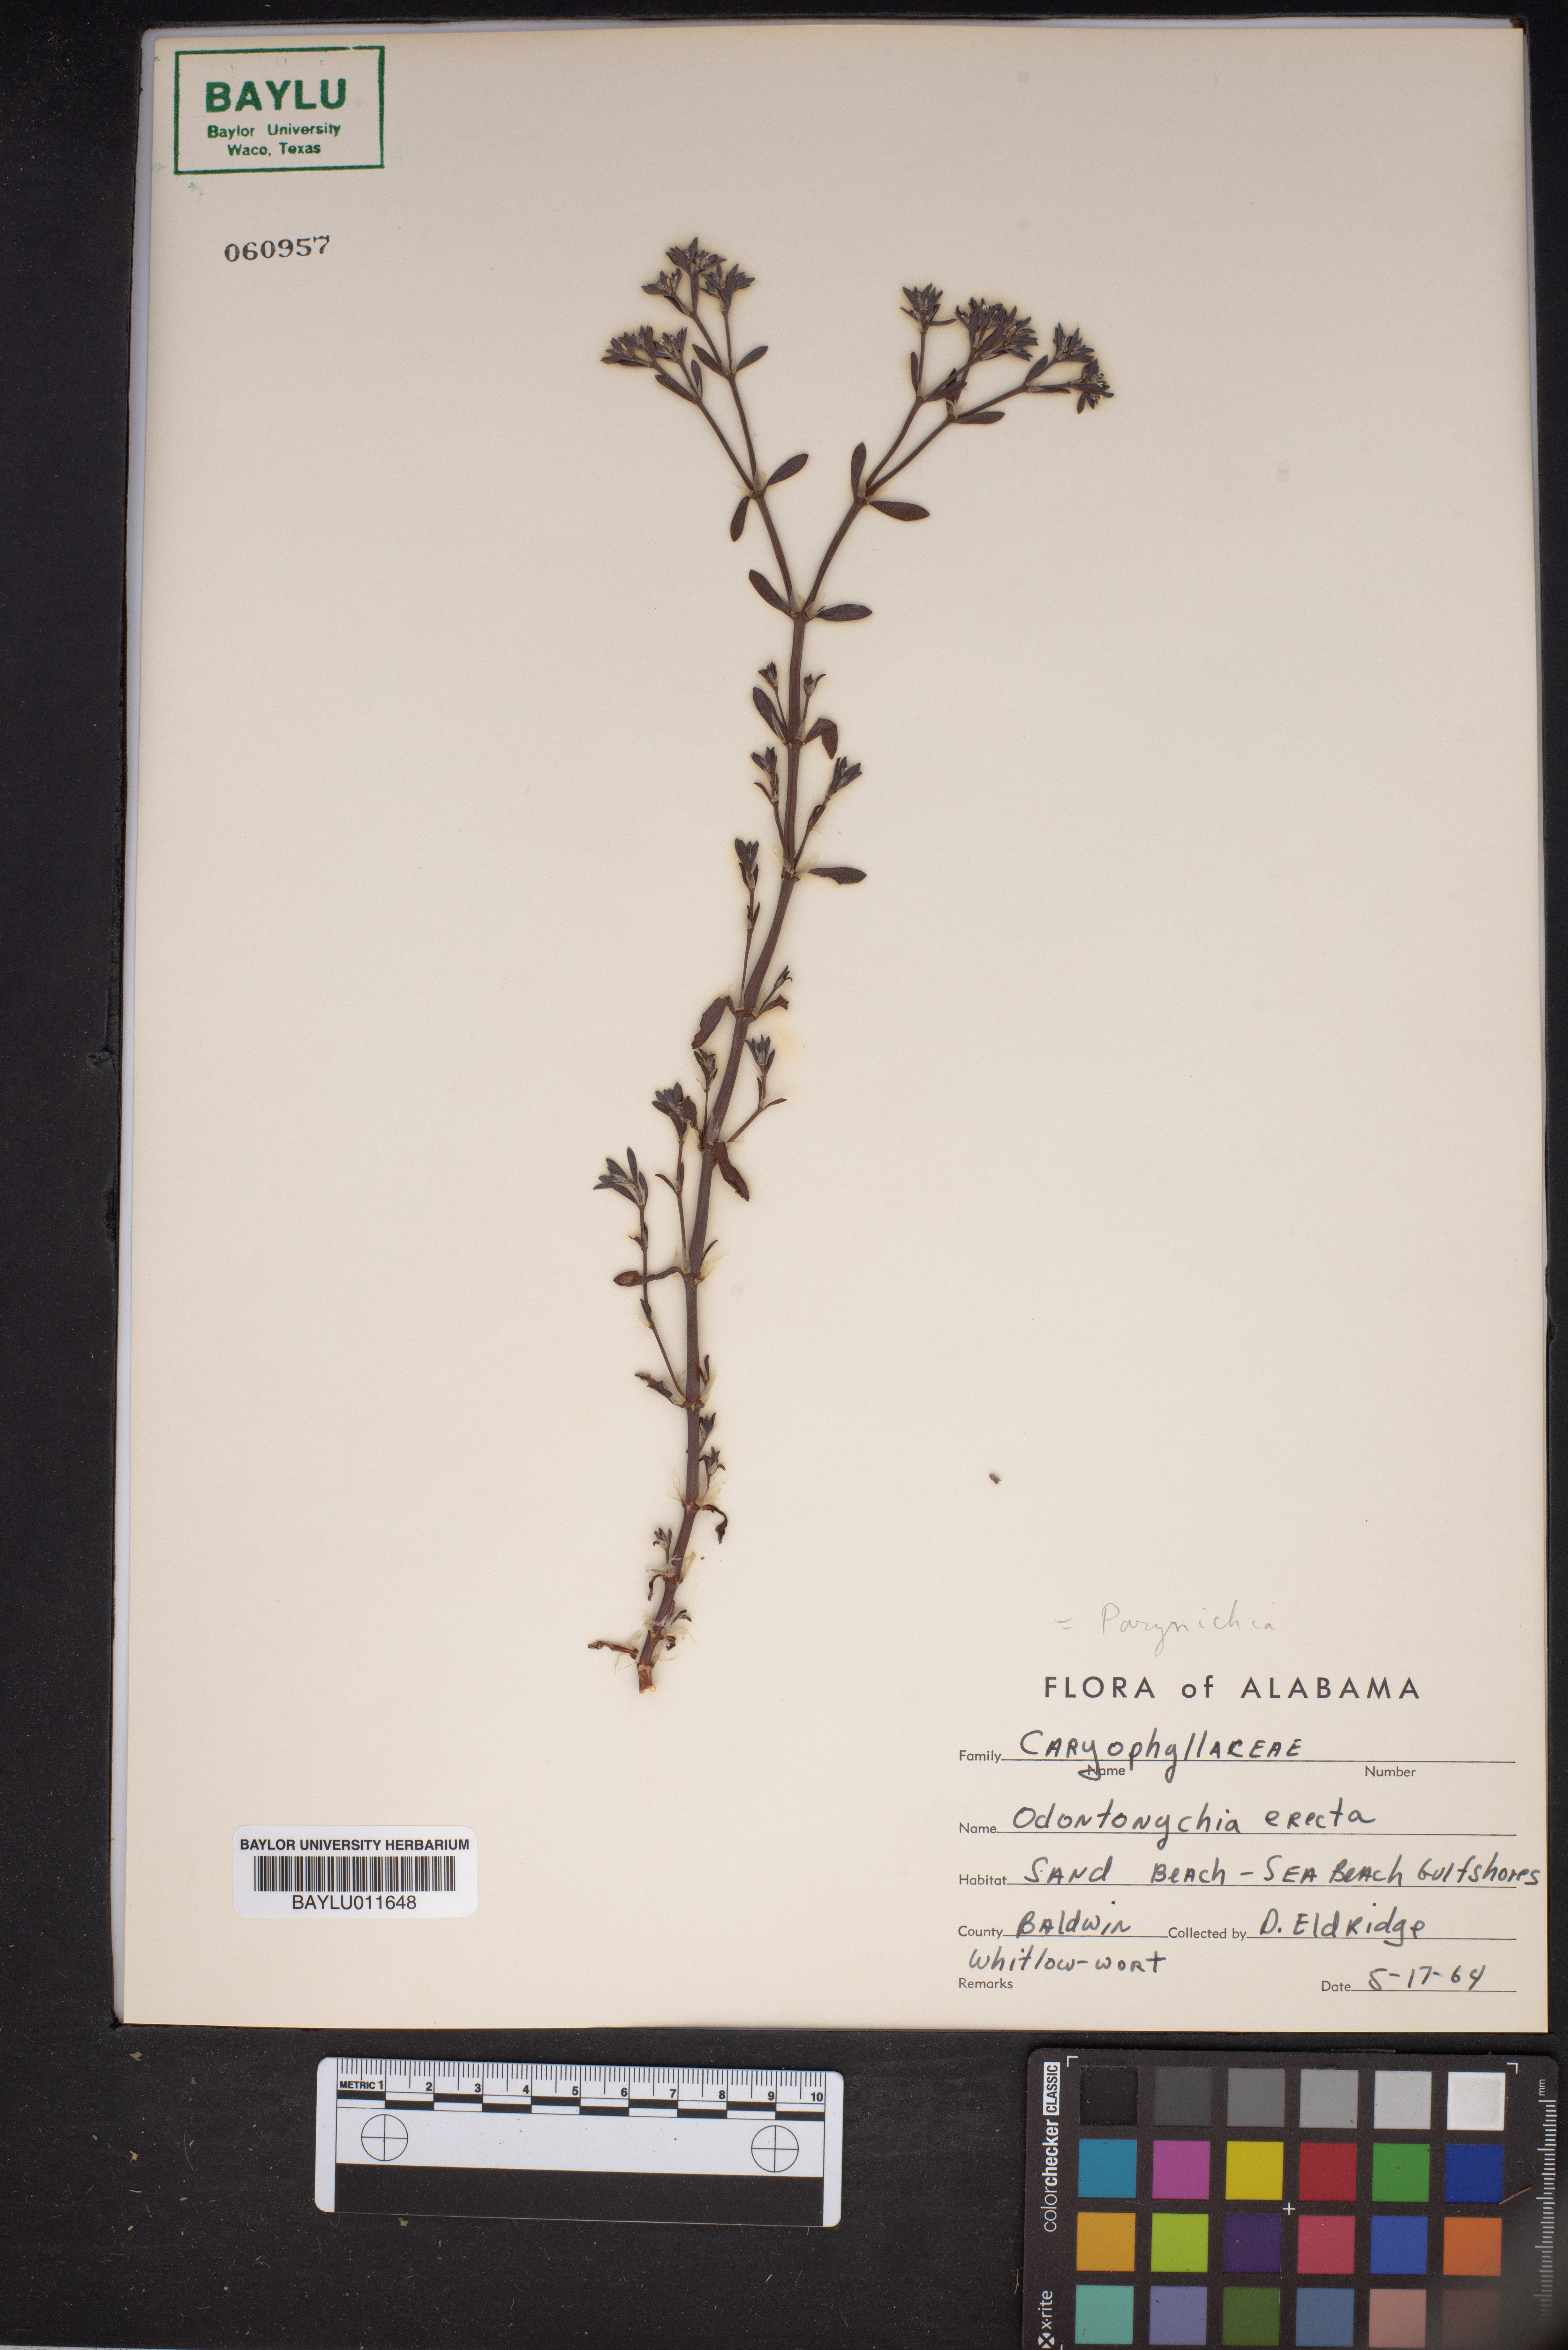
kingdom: Plantae
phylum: Tracheophyta
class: Magnoliopsida
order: Caryophyllales
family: Caryophyllaceae
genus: Paronychia
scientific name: Paronychia erecta
